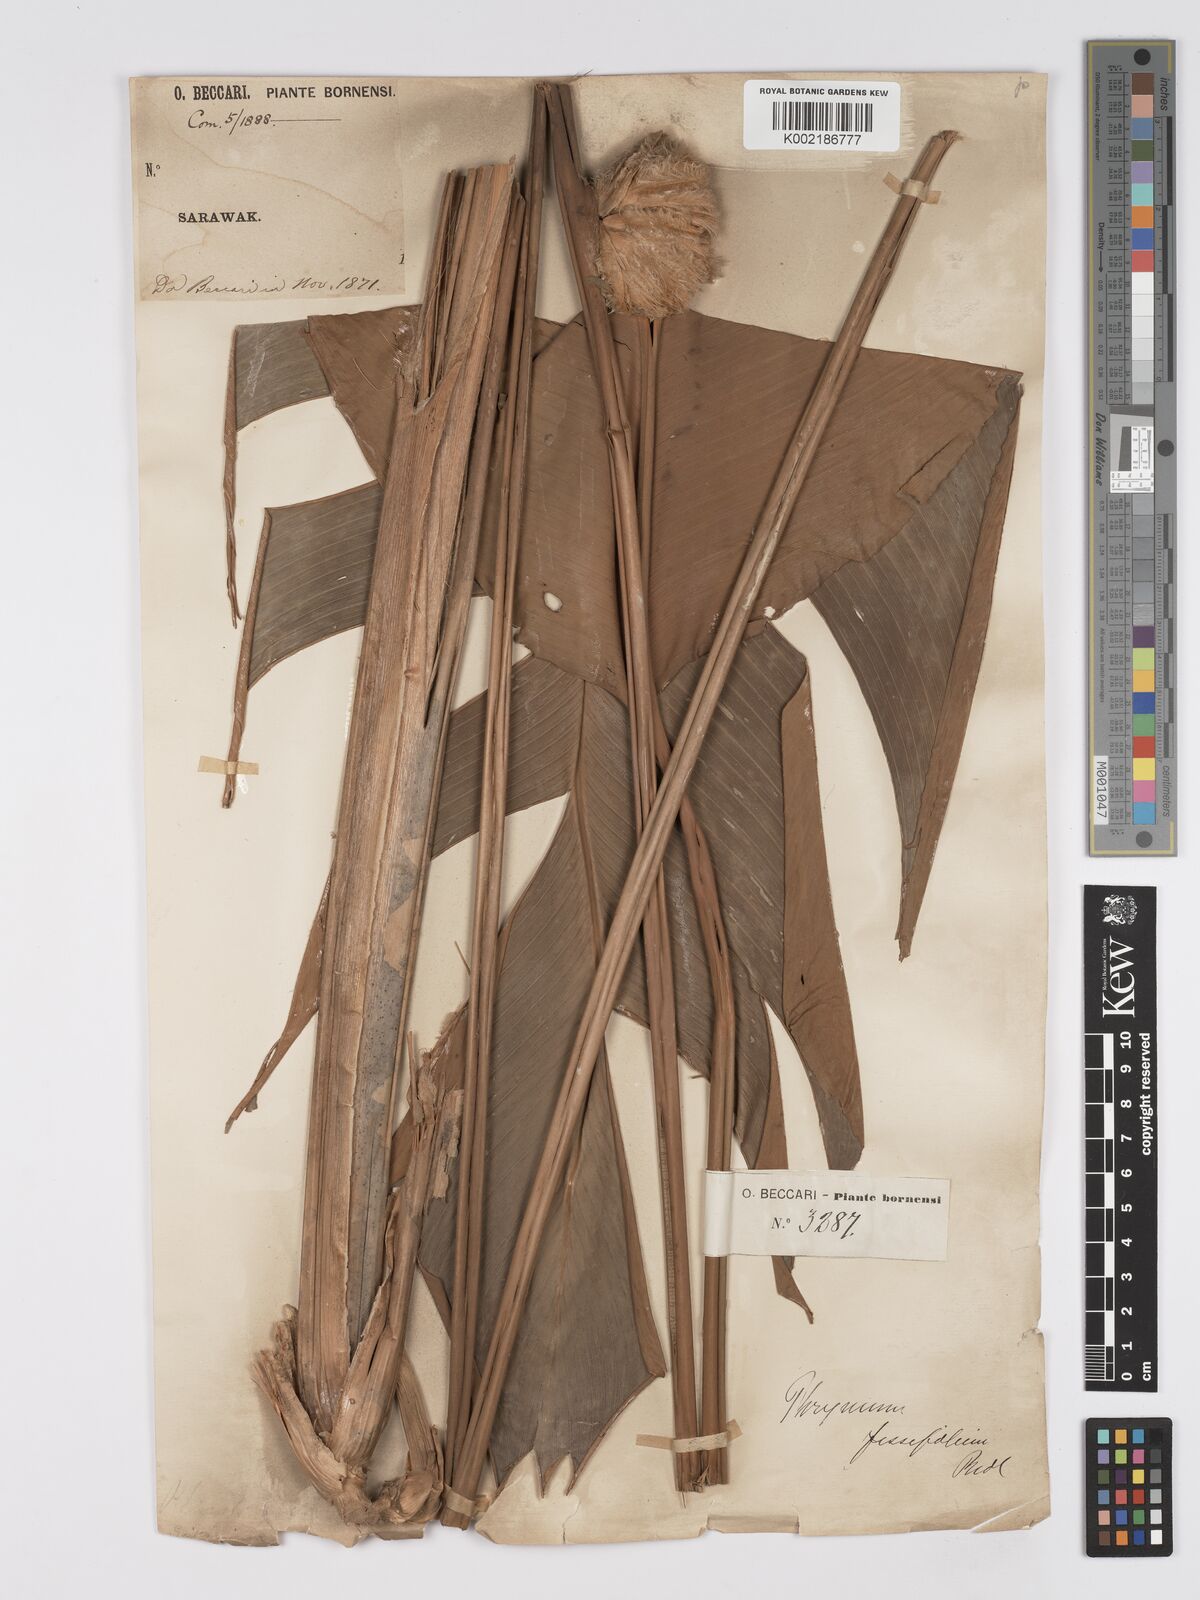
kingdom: Plantae
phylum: Tracheophyta
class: Liliopsida
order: Zingiberales
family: Marantaceae
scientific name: Marantaceae
